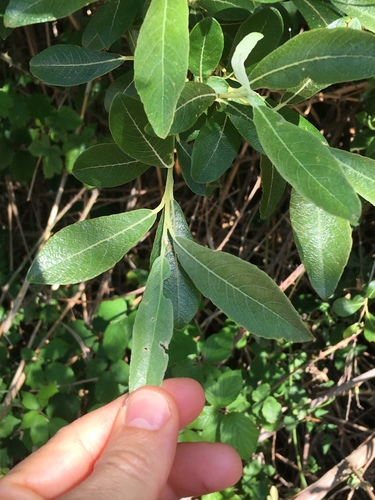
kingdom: Plantae
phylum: Tracheophyta
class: Magnoliopsida
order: Malpighiales
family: Salicaceae
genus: Salix
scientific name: Salix atrocinerea
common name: Rusty willow
